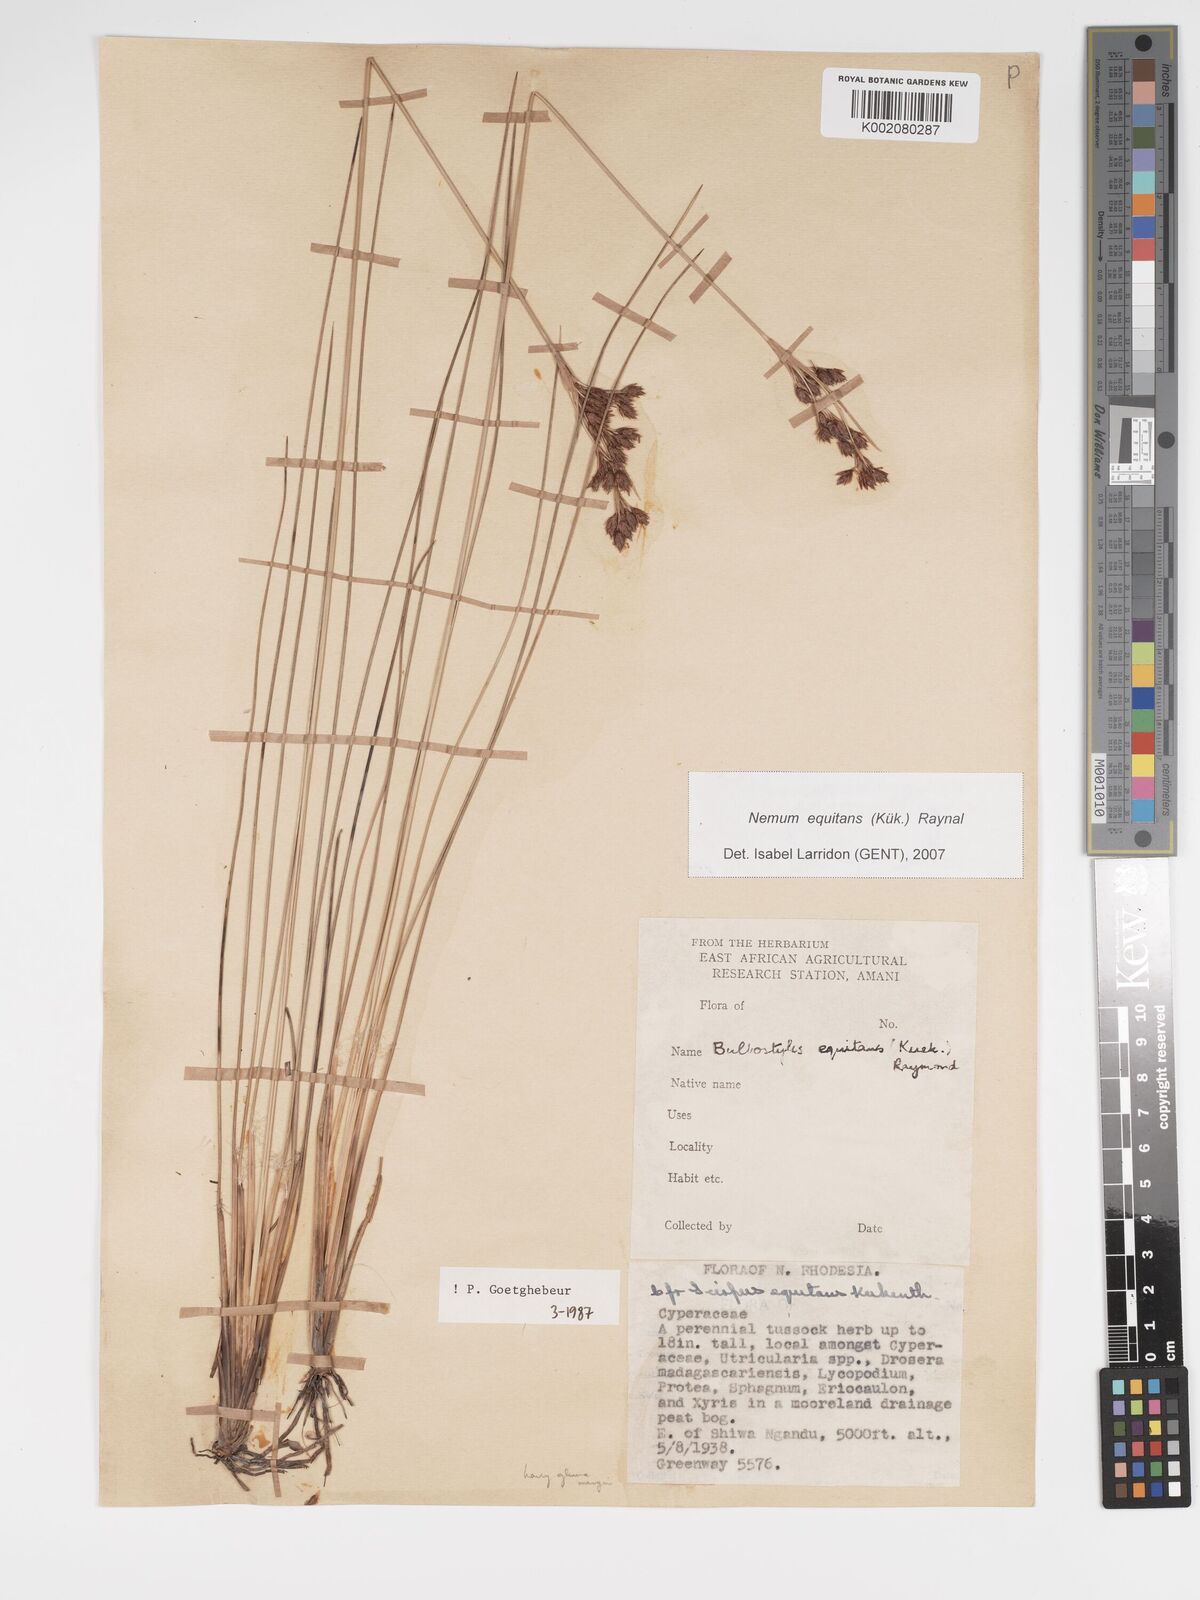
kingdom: Plantae
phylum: Tracheophyta
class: Liliopsida
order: Poales
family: Cyperaceae
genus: Bulbostylis
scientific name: Bulbostylis equitans
